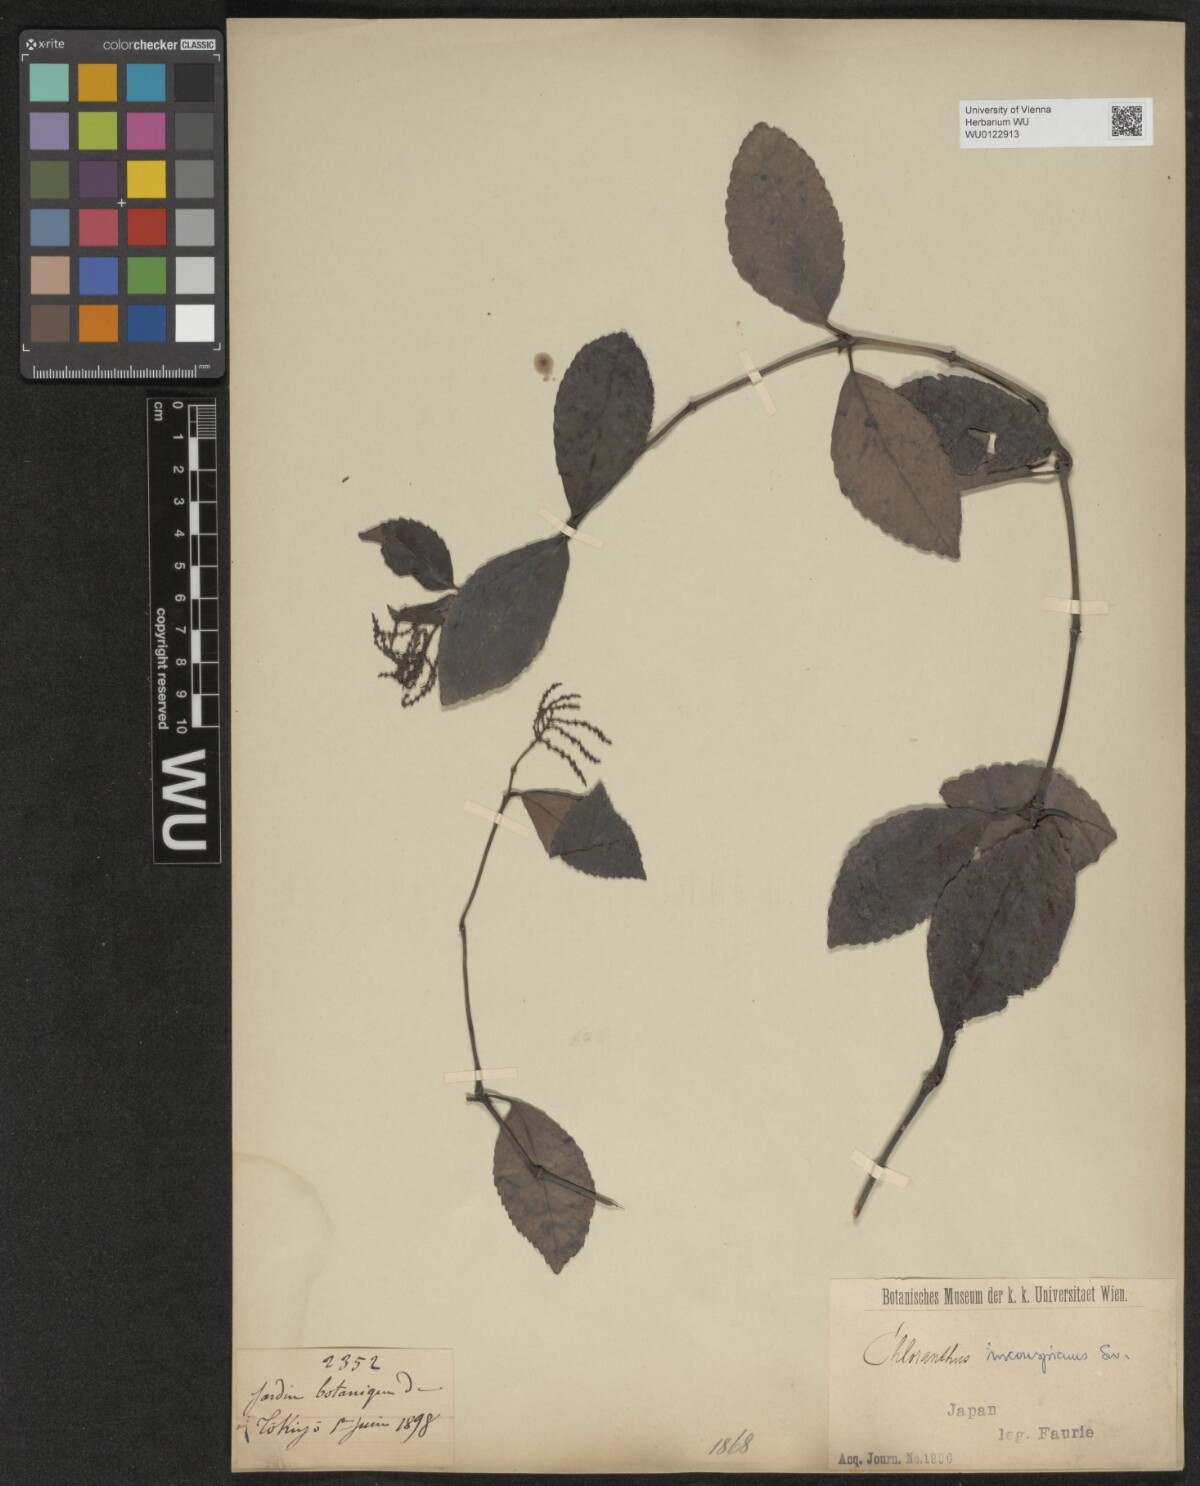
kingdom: Plantae
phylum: Tracheophyta
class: Magnoliopsida
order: Chloranthales
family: Chloranthaceae
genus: Chloranthus
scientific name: Chloranthus spicatus
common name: Chulantree
